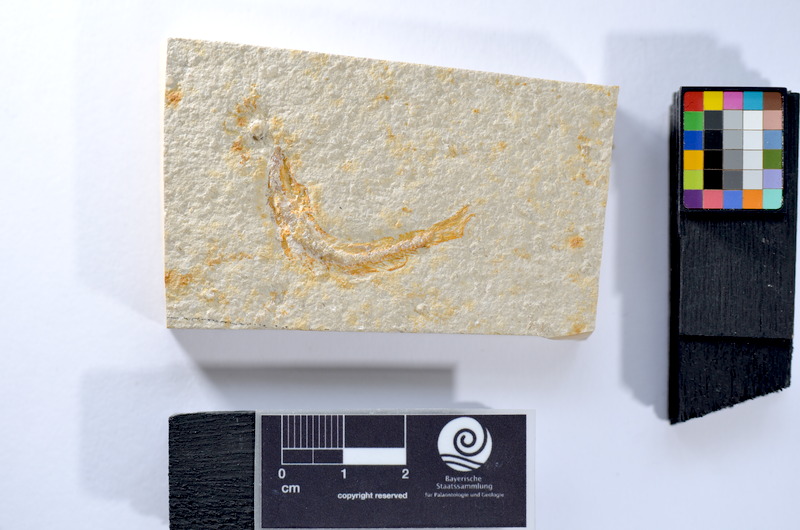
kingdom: Animalia
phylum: Chordata
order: Salmoniformes
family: Orthogonikleithridae
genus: Leptolepides
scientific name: Leptolepides
